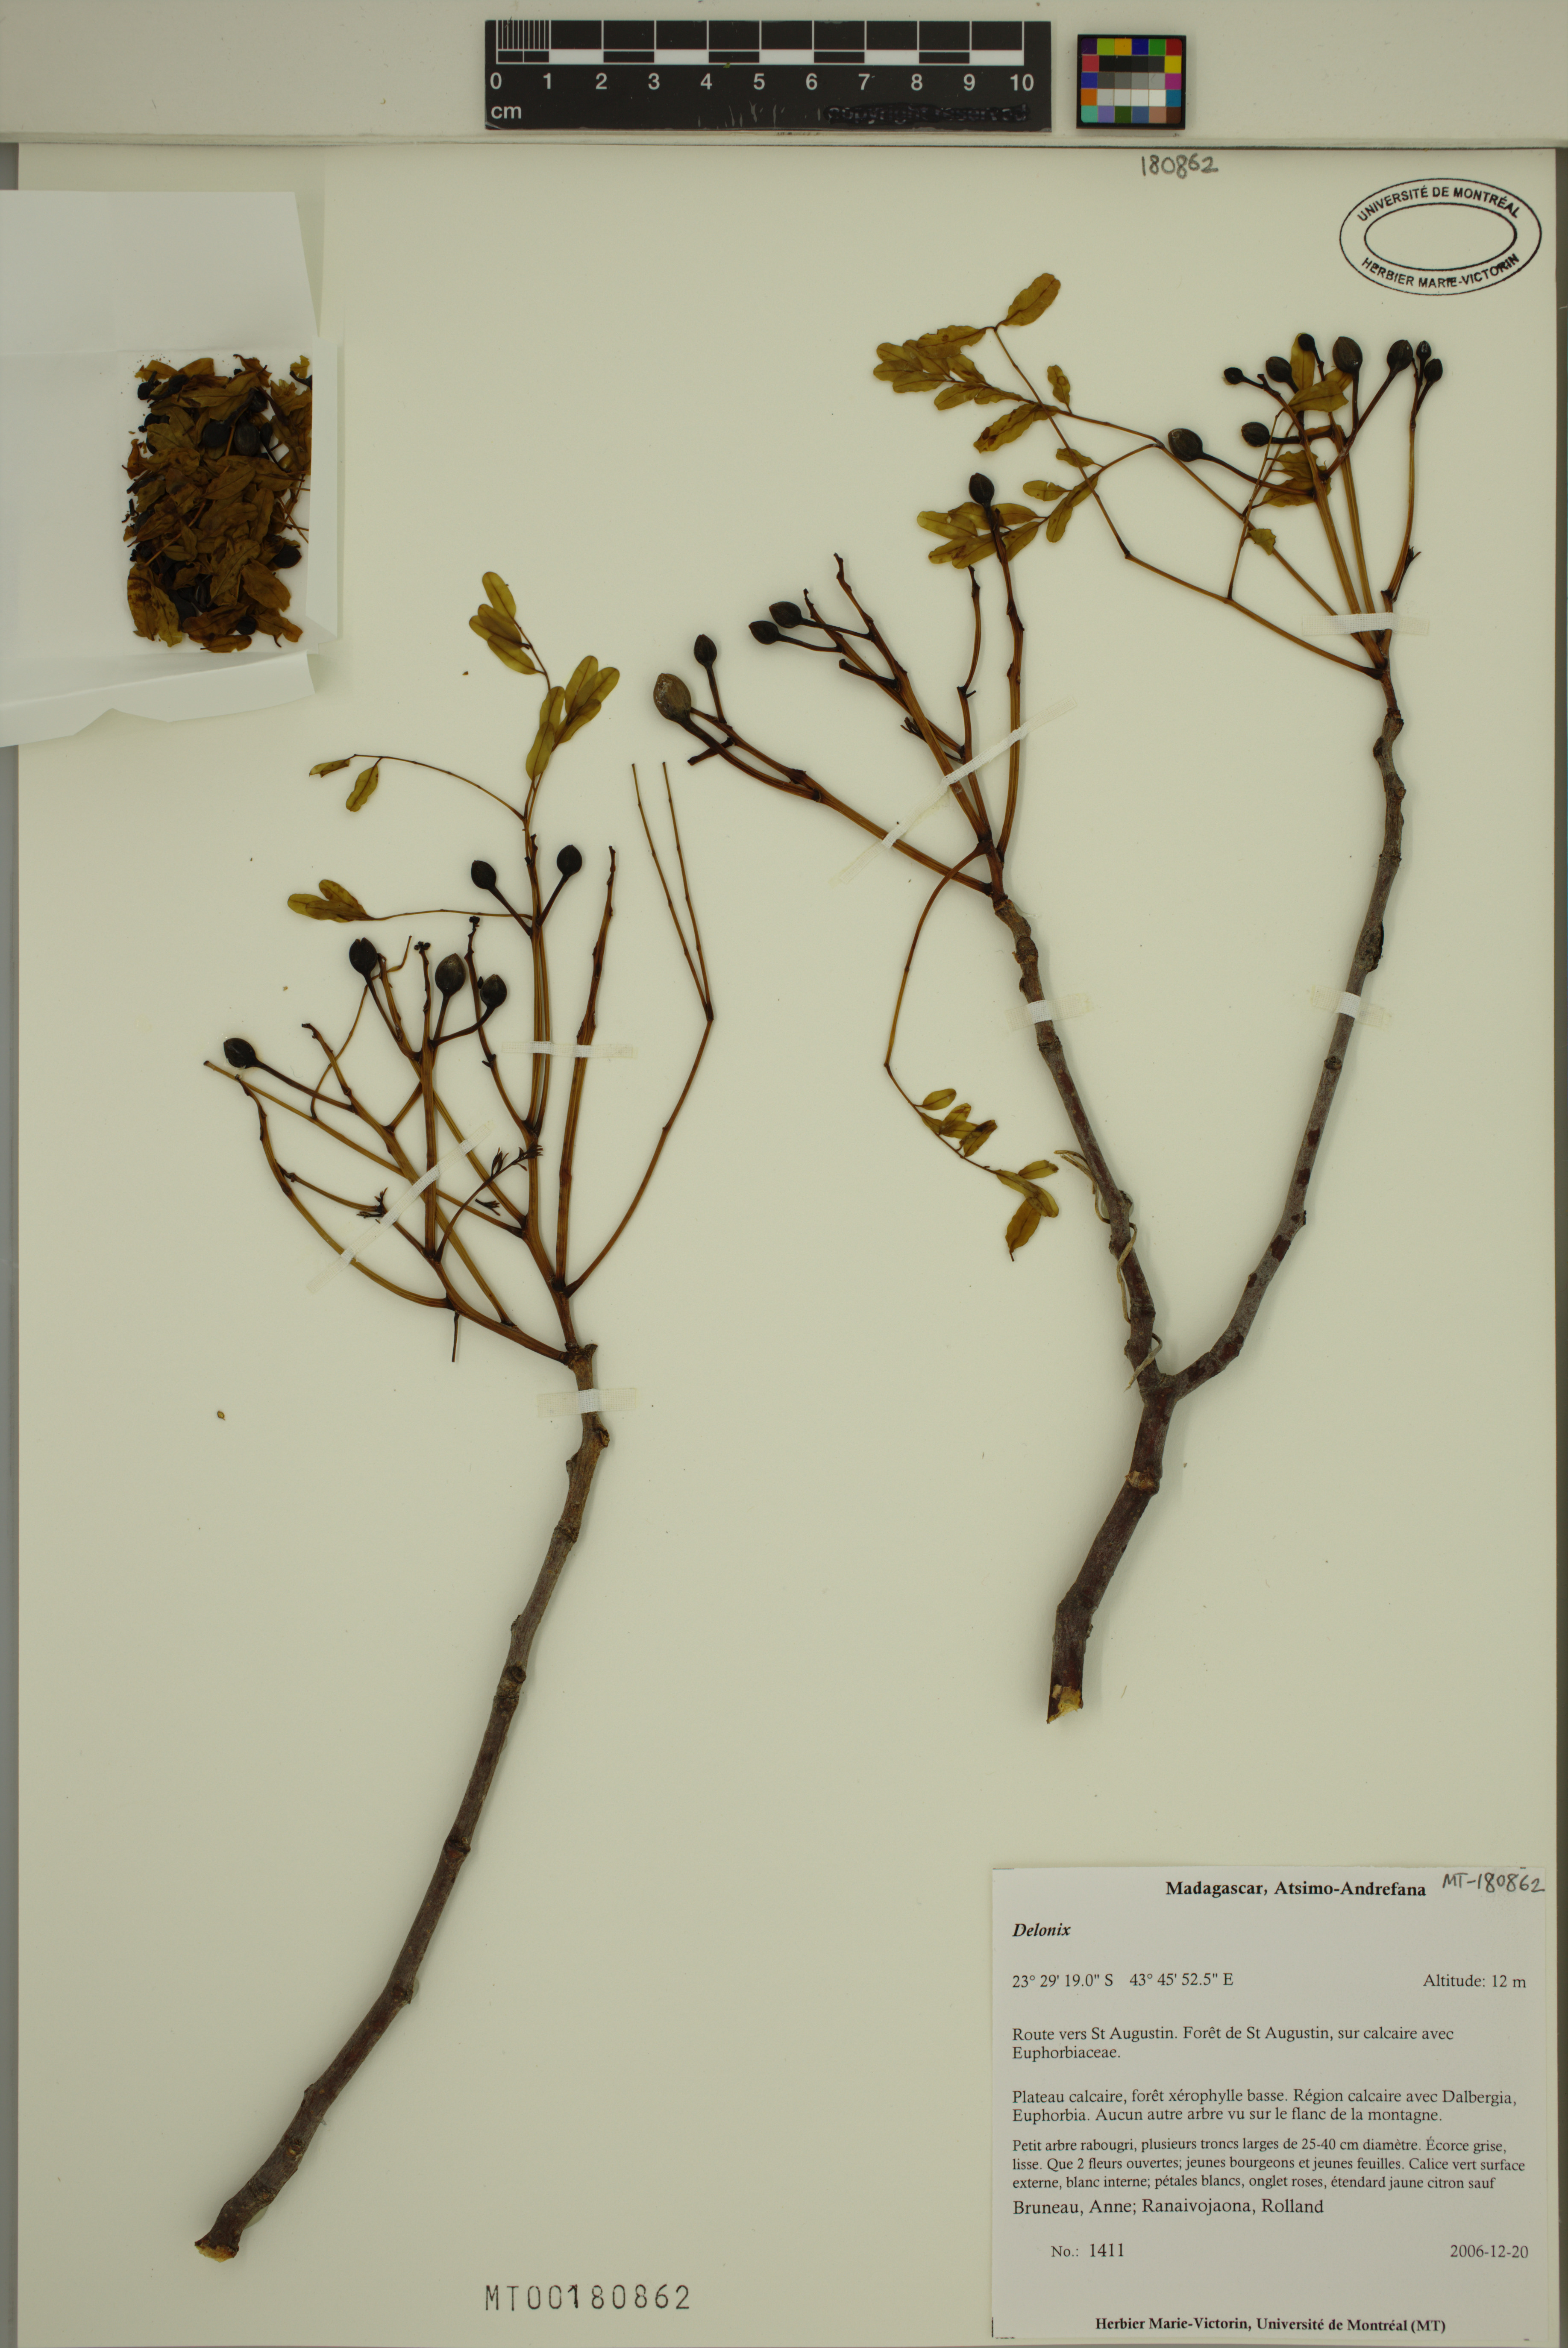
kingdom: Plantae
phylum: Tracheophyta
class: Magnoliopsida
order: Fabales
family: Fabaceae
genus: Delonix
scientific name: Delonix
